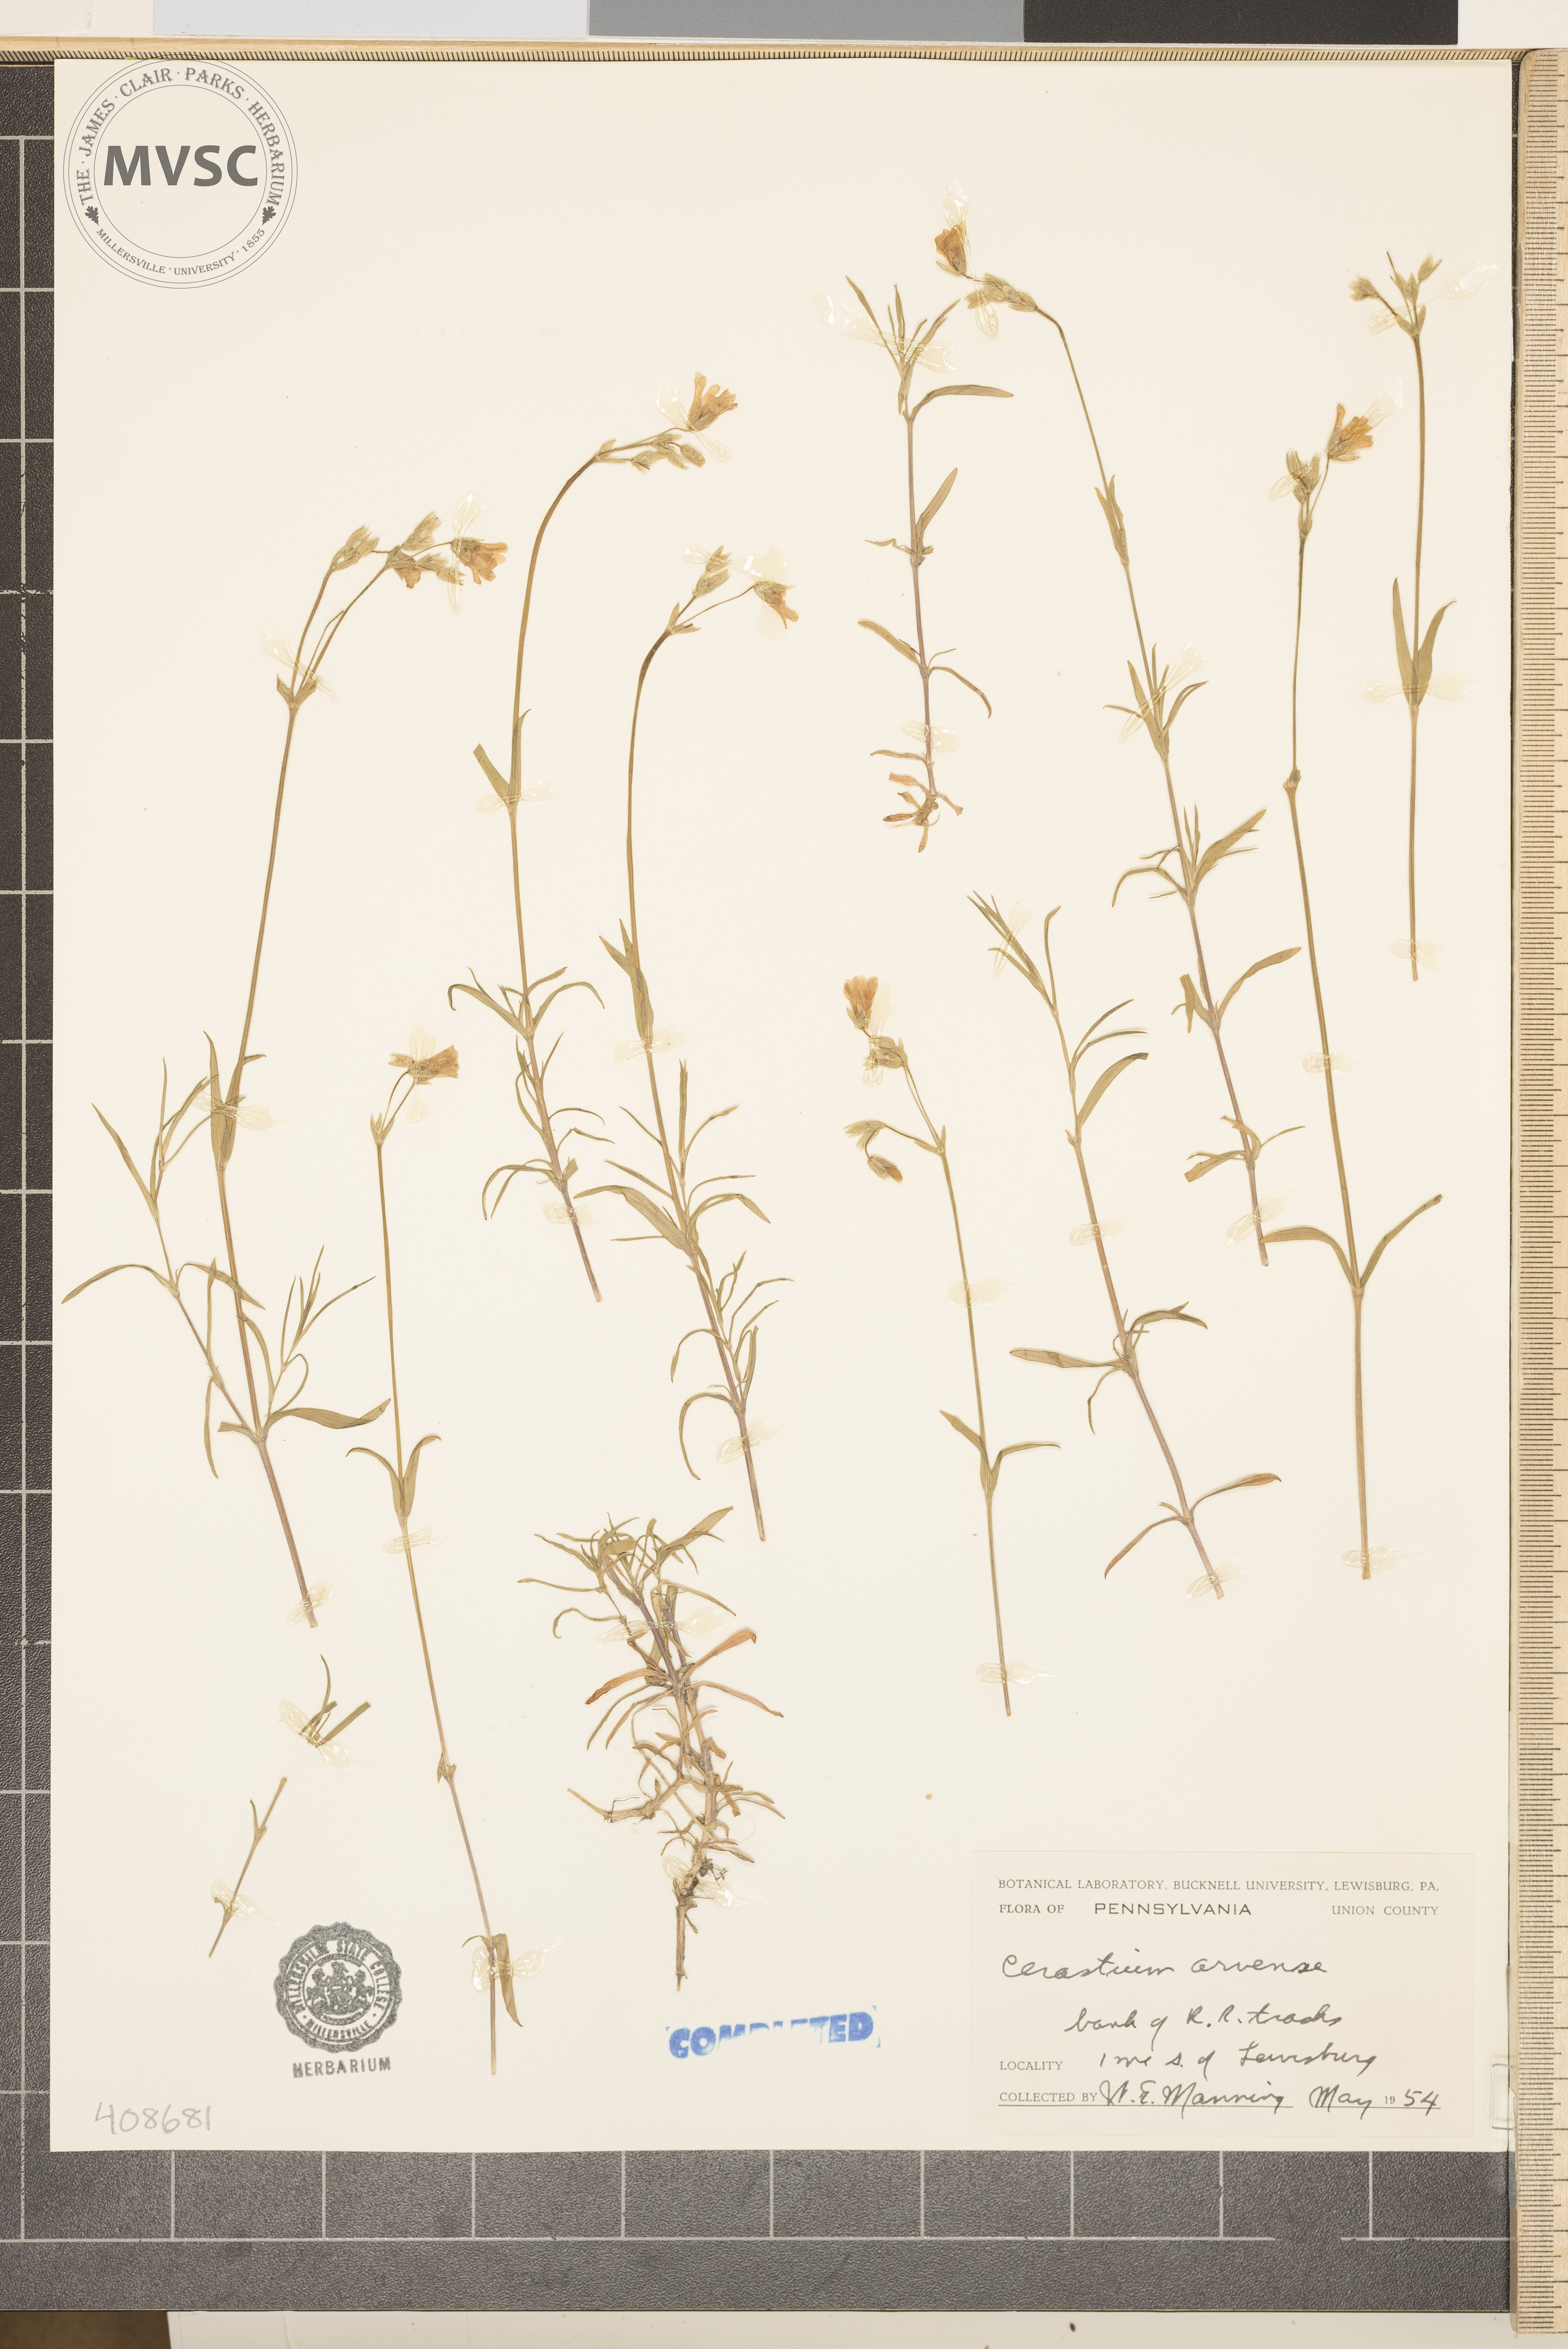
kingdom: Plantae
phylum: Tracheophyta
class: Magnoliopsida
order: Caryophyllales
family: Caryophyllaceae
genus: Cerastium
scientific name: Cerastium arvense
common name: Field mouse-ear
